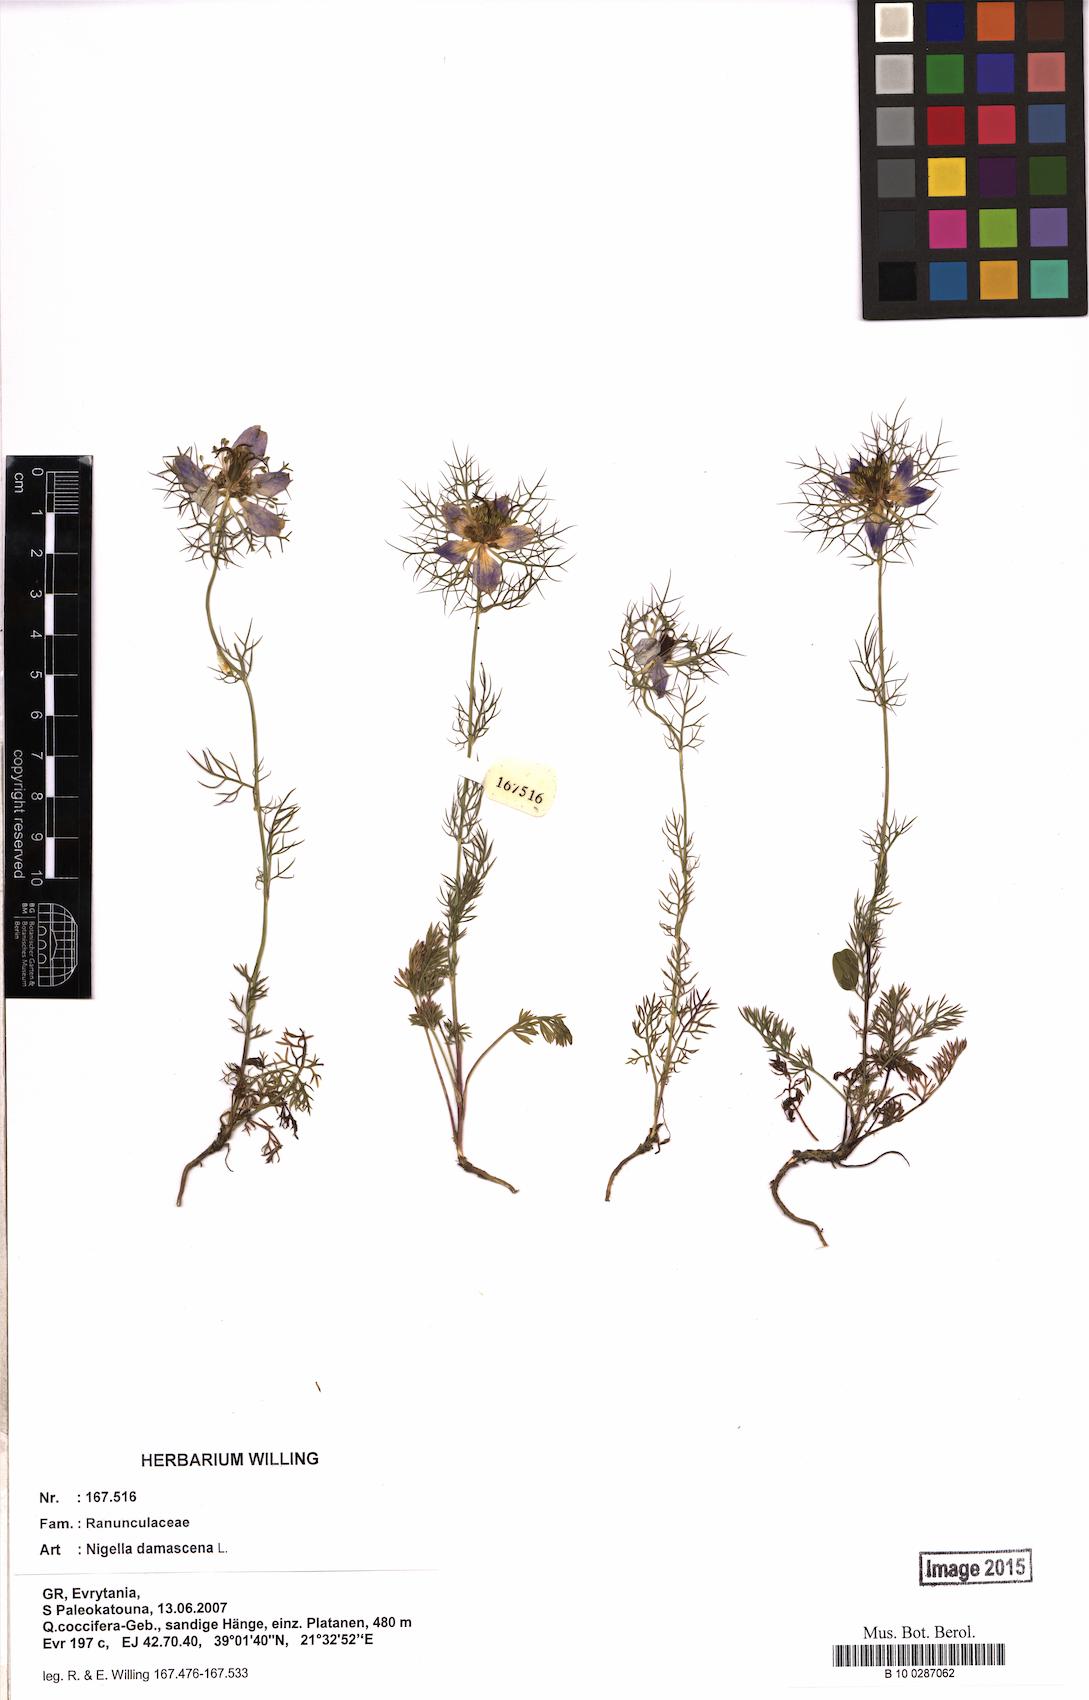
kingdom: Plantae
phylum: Tracheophyta
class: Magnoliopsida
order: Ranunculales
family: Ranunculaceae
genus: Nigella
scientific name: Nigella damascena
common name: Love-in-a-mist
